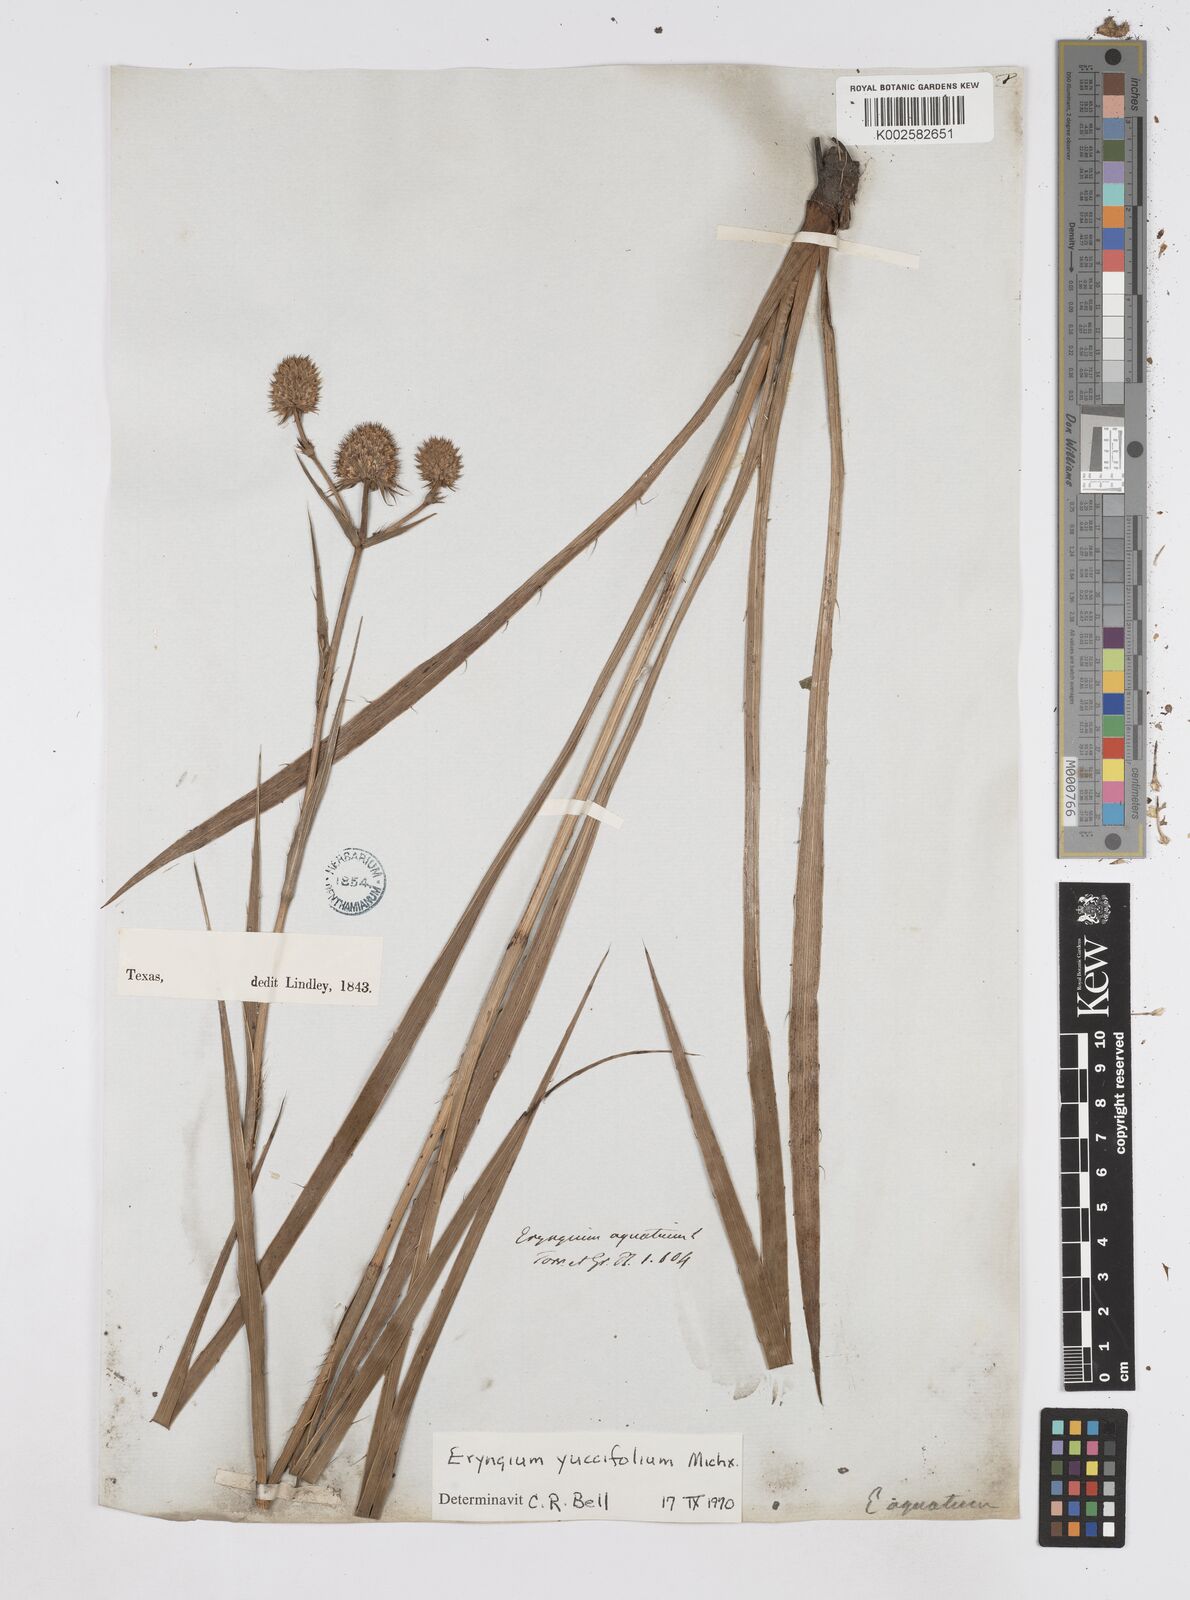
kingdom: Plantae
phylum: Tracheophyta
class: Magnoliopsida
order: Apiales
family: Apiaceae
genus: Eryngium
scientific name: Eryngium yuccifolium
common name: Button eryngo
